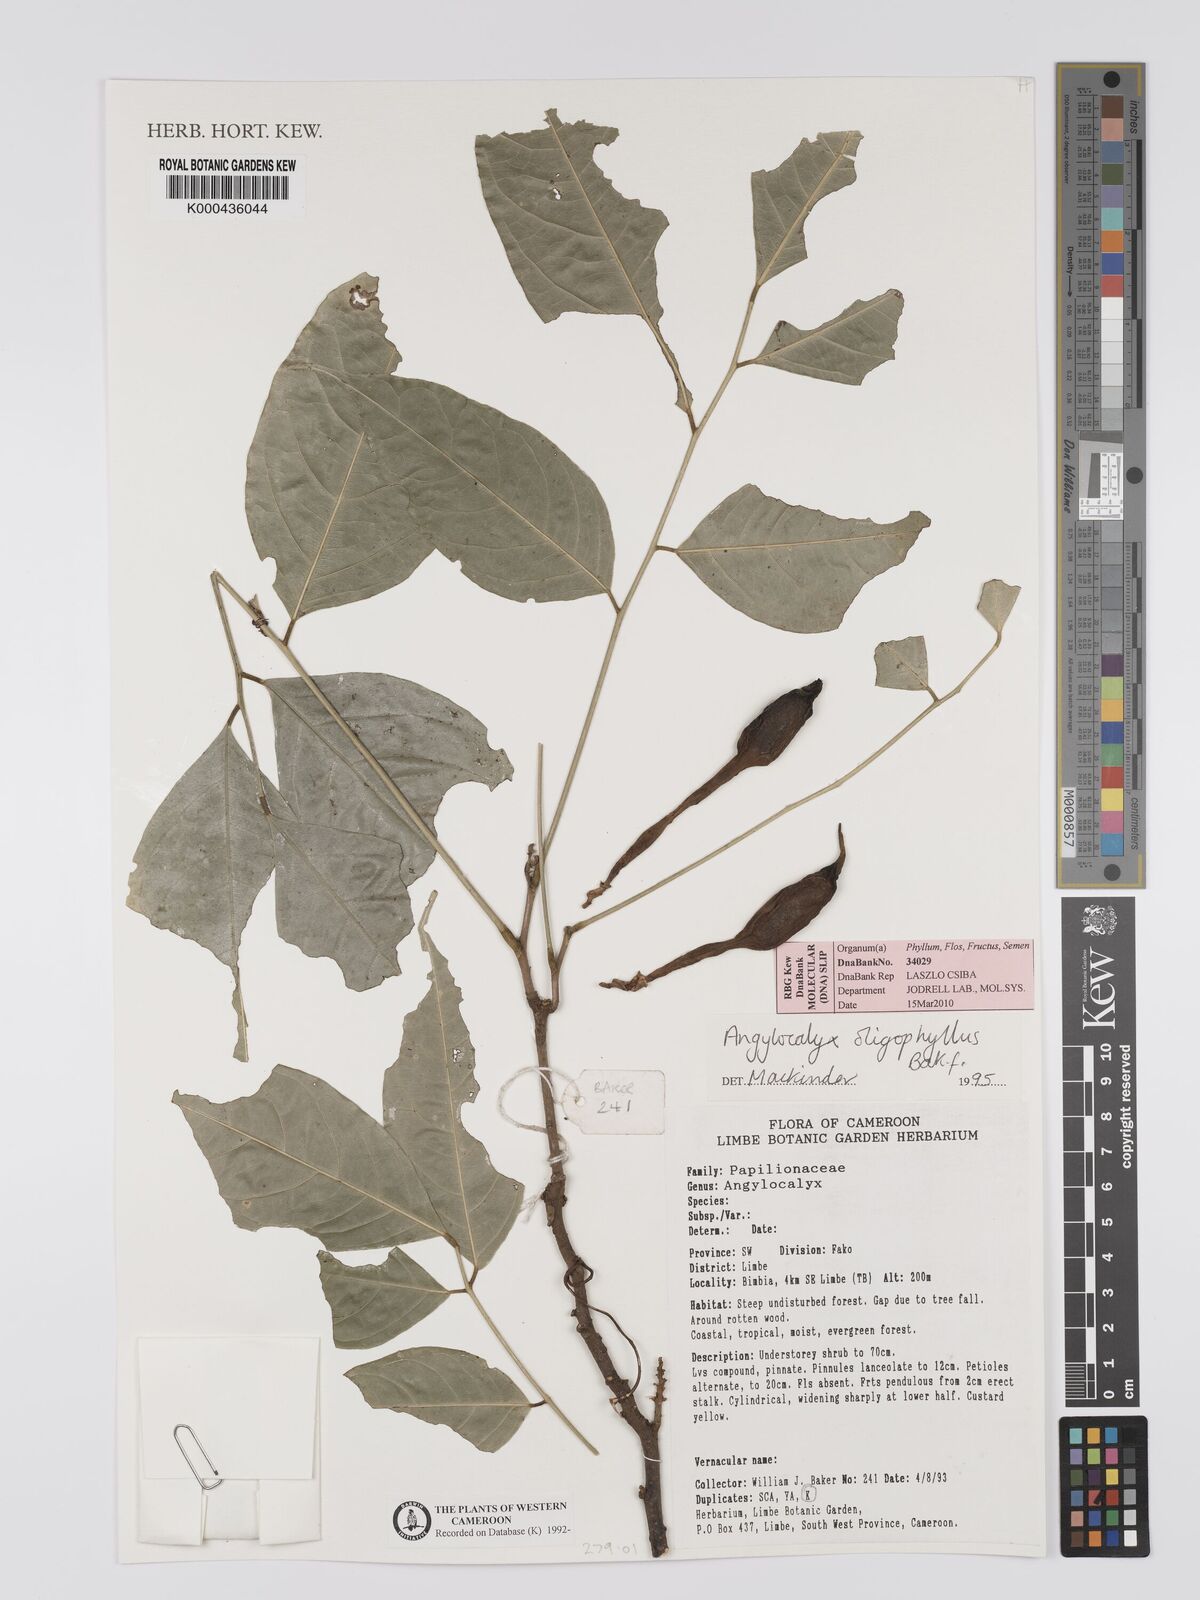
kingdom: Plantae
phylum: Tracheophyta
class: Magnoliopsida
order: Fabales
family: Fabaceae
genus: Angylocalyx
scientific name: Angylocalyx oligophyllus
